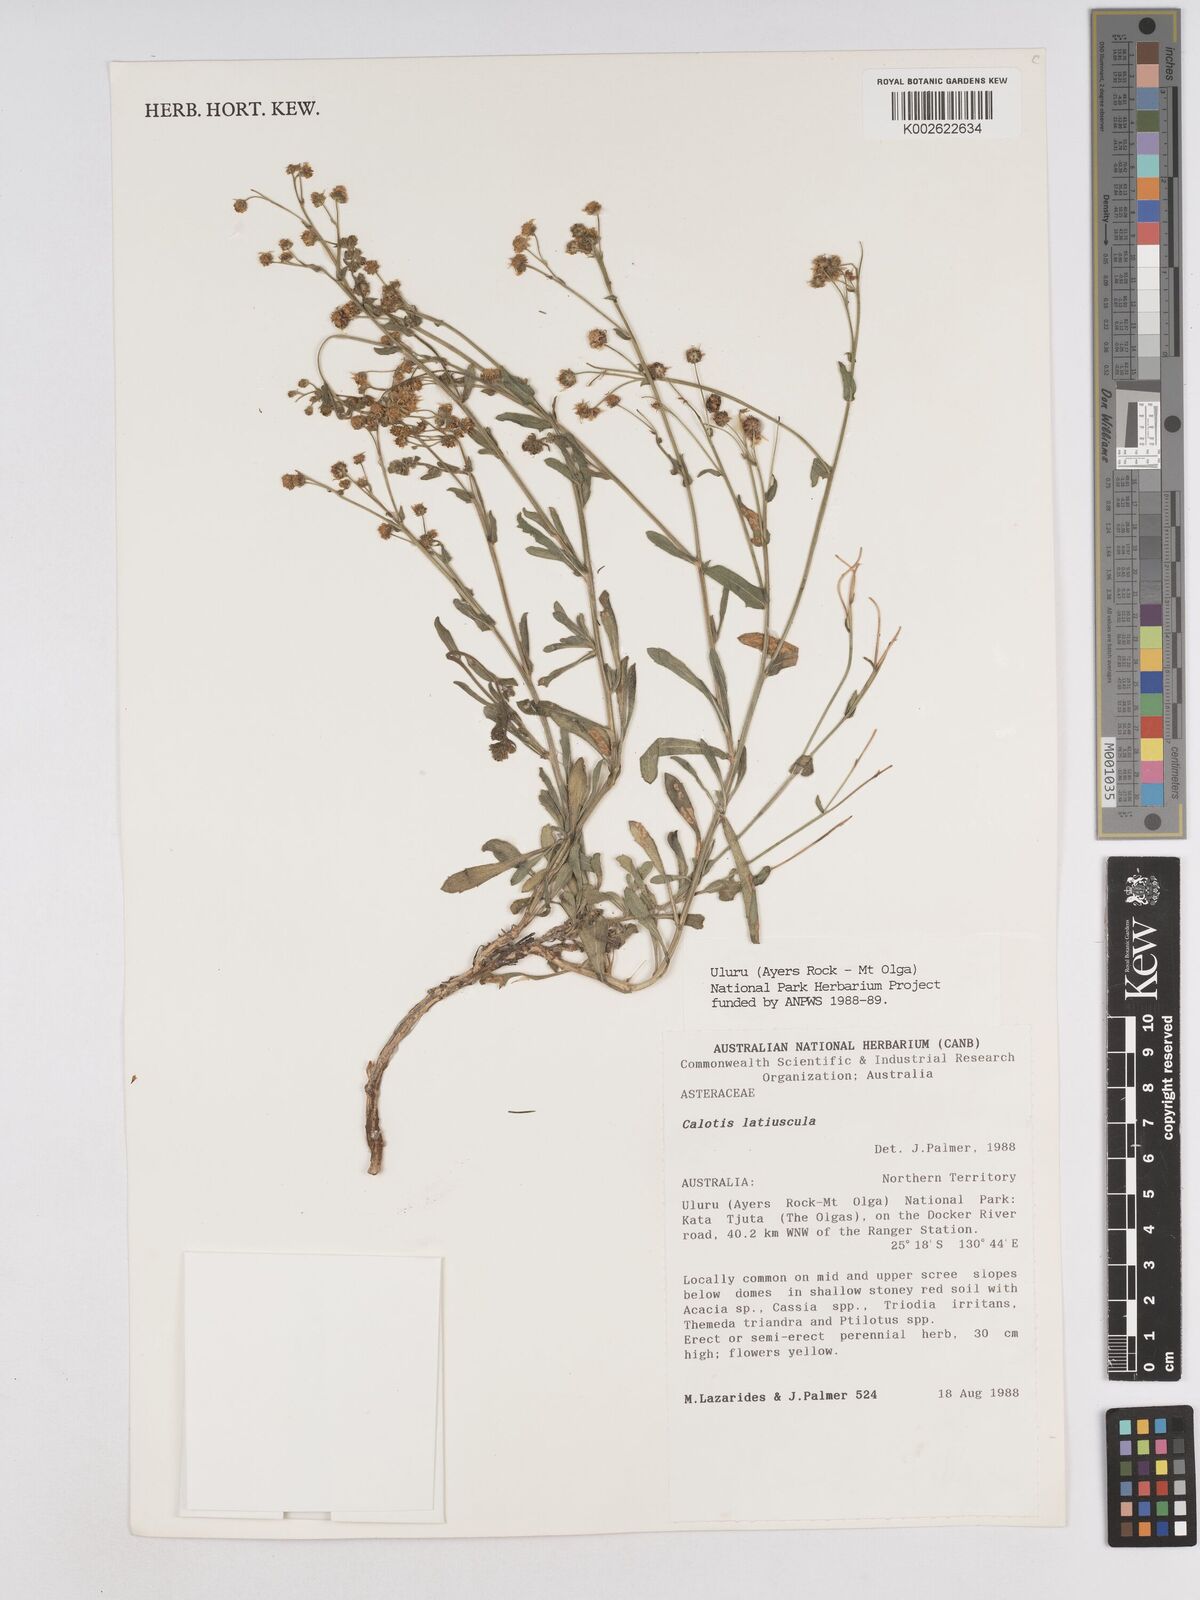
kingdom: Plantae
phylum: Tracheophyta
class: Magnoliopsida
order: Asterales
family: Asteraceae
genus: Calotis
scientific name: Calotis latiuscula
